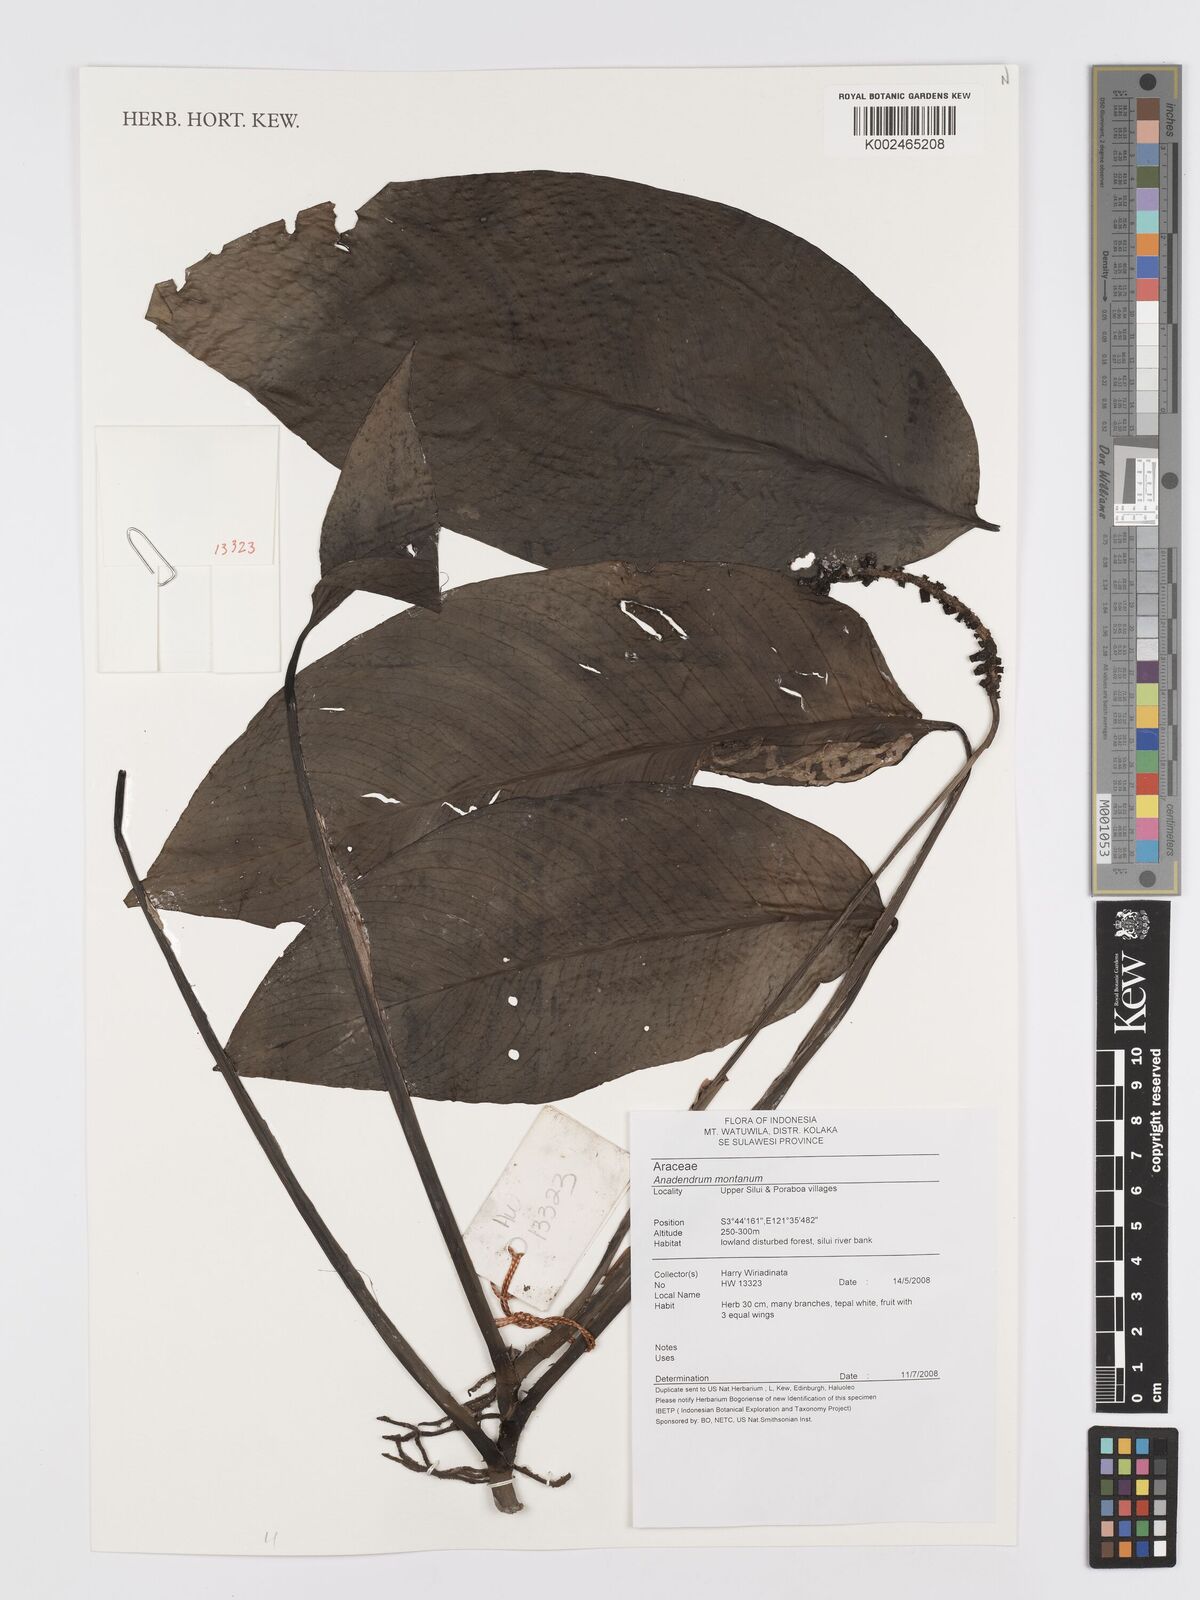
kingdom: Plantae
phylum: Tracheophyta
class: Liliopsida
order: Alismatales
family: Araceae
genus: Anadendrum
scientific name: Anadendrum marginatum
